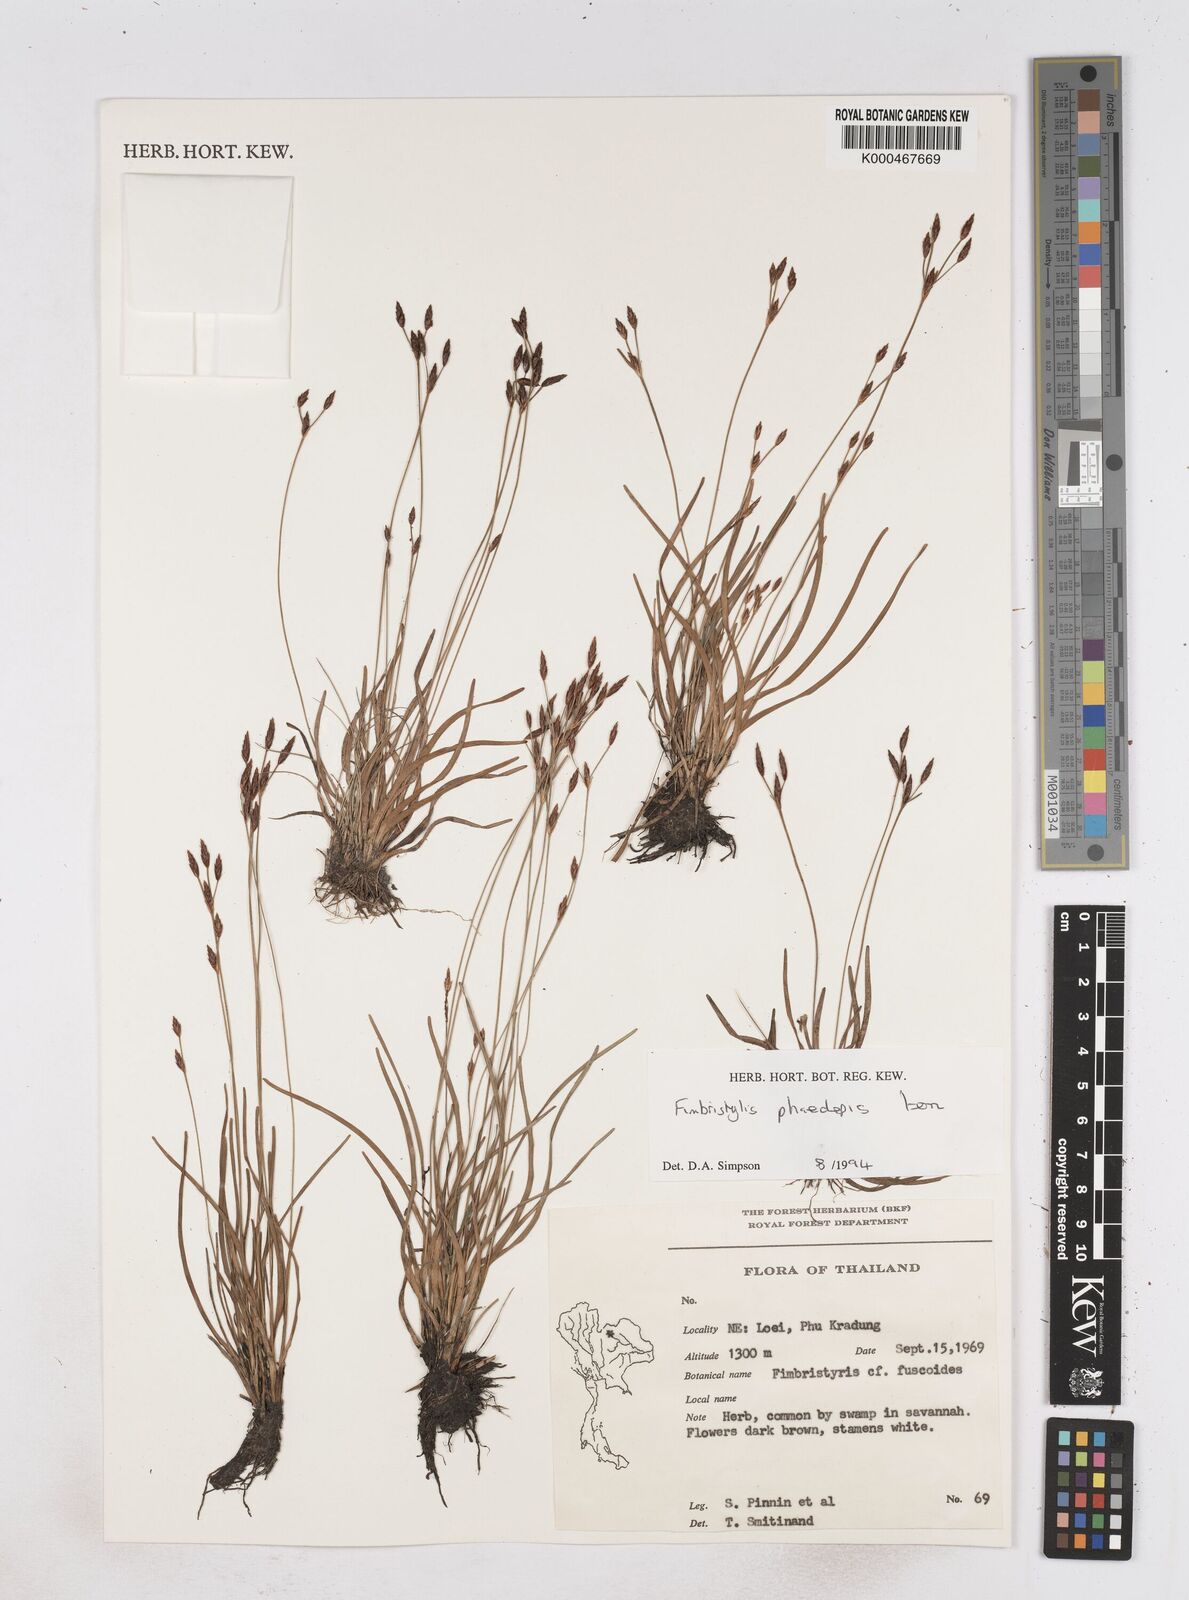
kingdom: Plantae
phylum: Tracheophyta
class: Liliopsida
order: Poales
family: Cyperaceae
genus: Fimbristylis
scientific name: Fimbristylis phaeolepis
